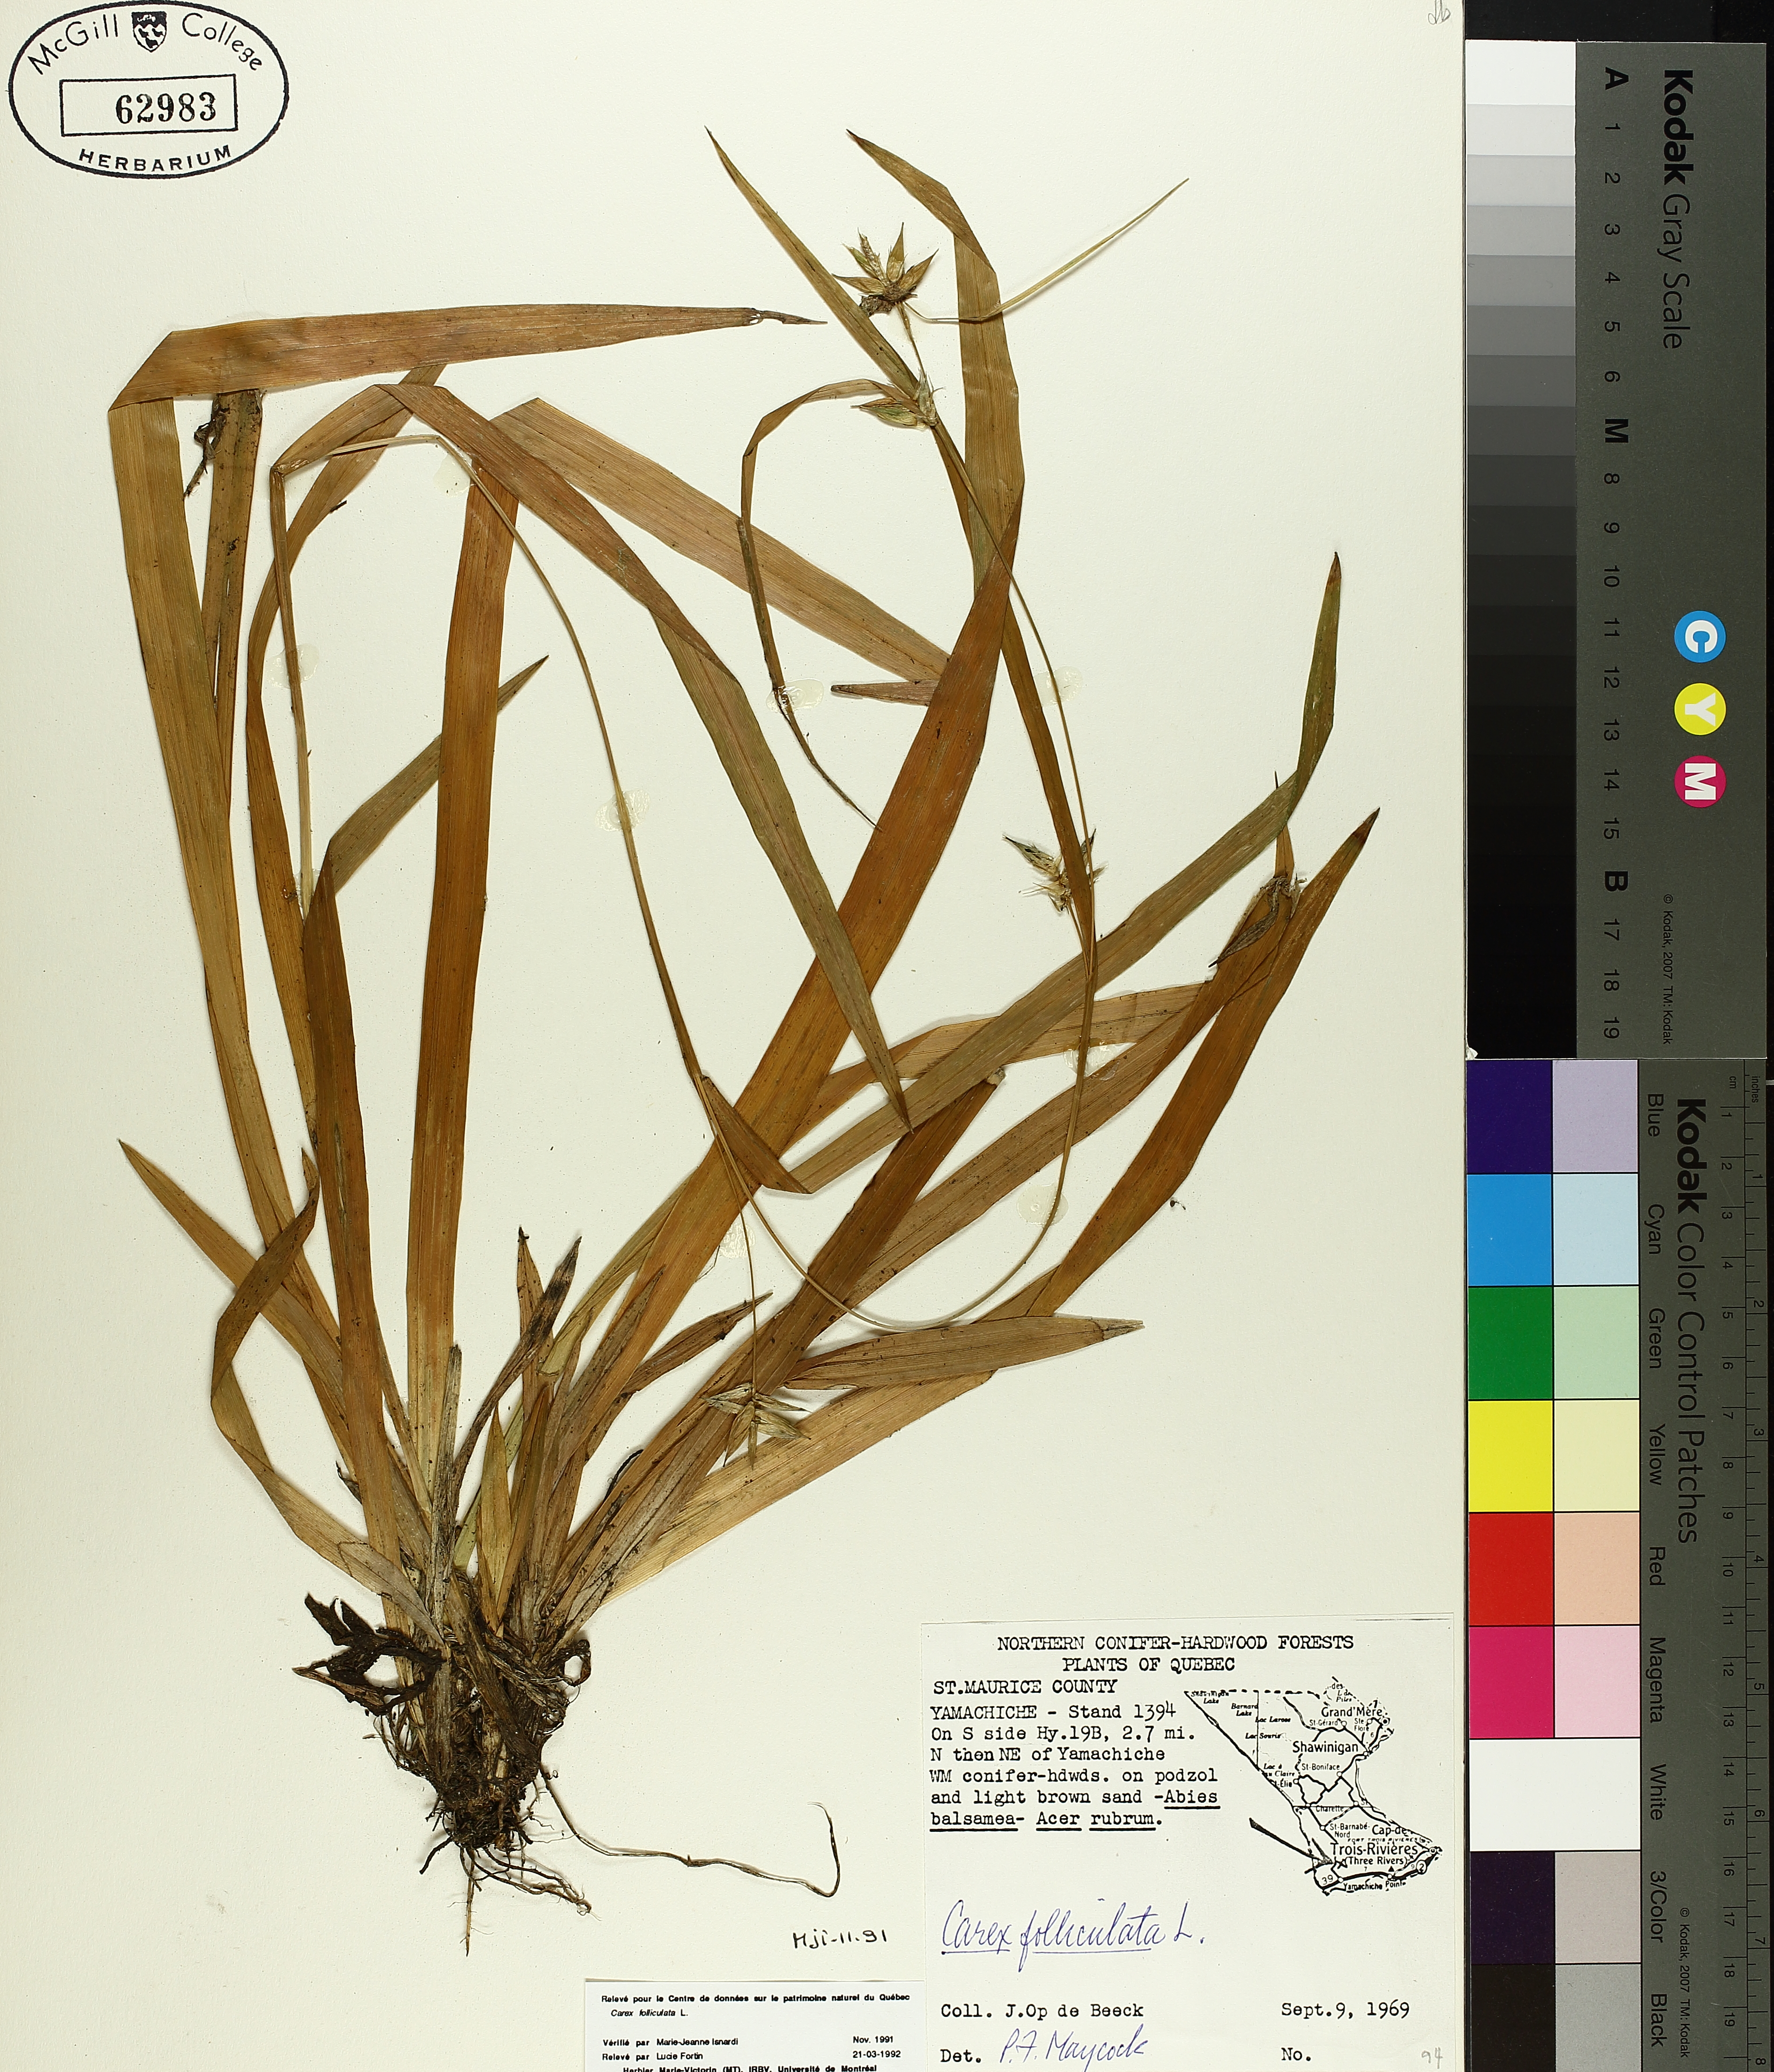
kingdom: Plantae
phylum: Tracheophyta
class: Liliopsida
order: Poales
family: Cyperaceae
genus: Carex
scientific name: Carex folliculata
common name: Northern long sedge
